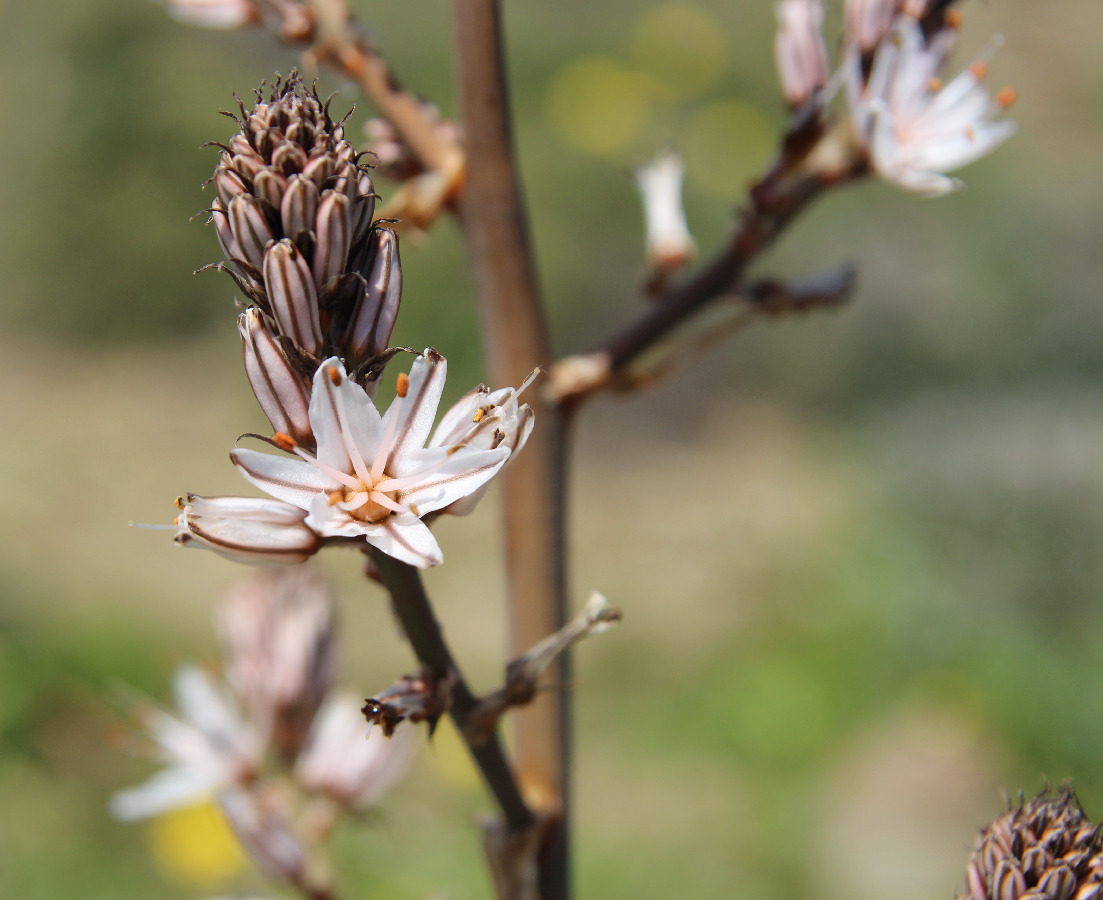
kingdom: Plantae
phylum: Tracheophyta
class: Liliopsida
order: Asparagales
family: Asphodelaceae
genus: Asphodelus
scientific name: Asphodelus ramosus
